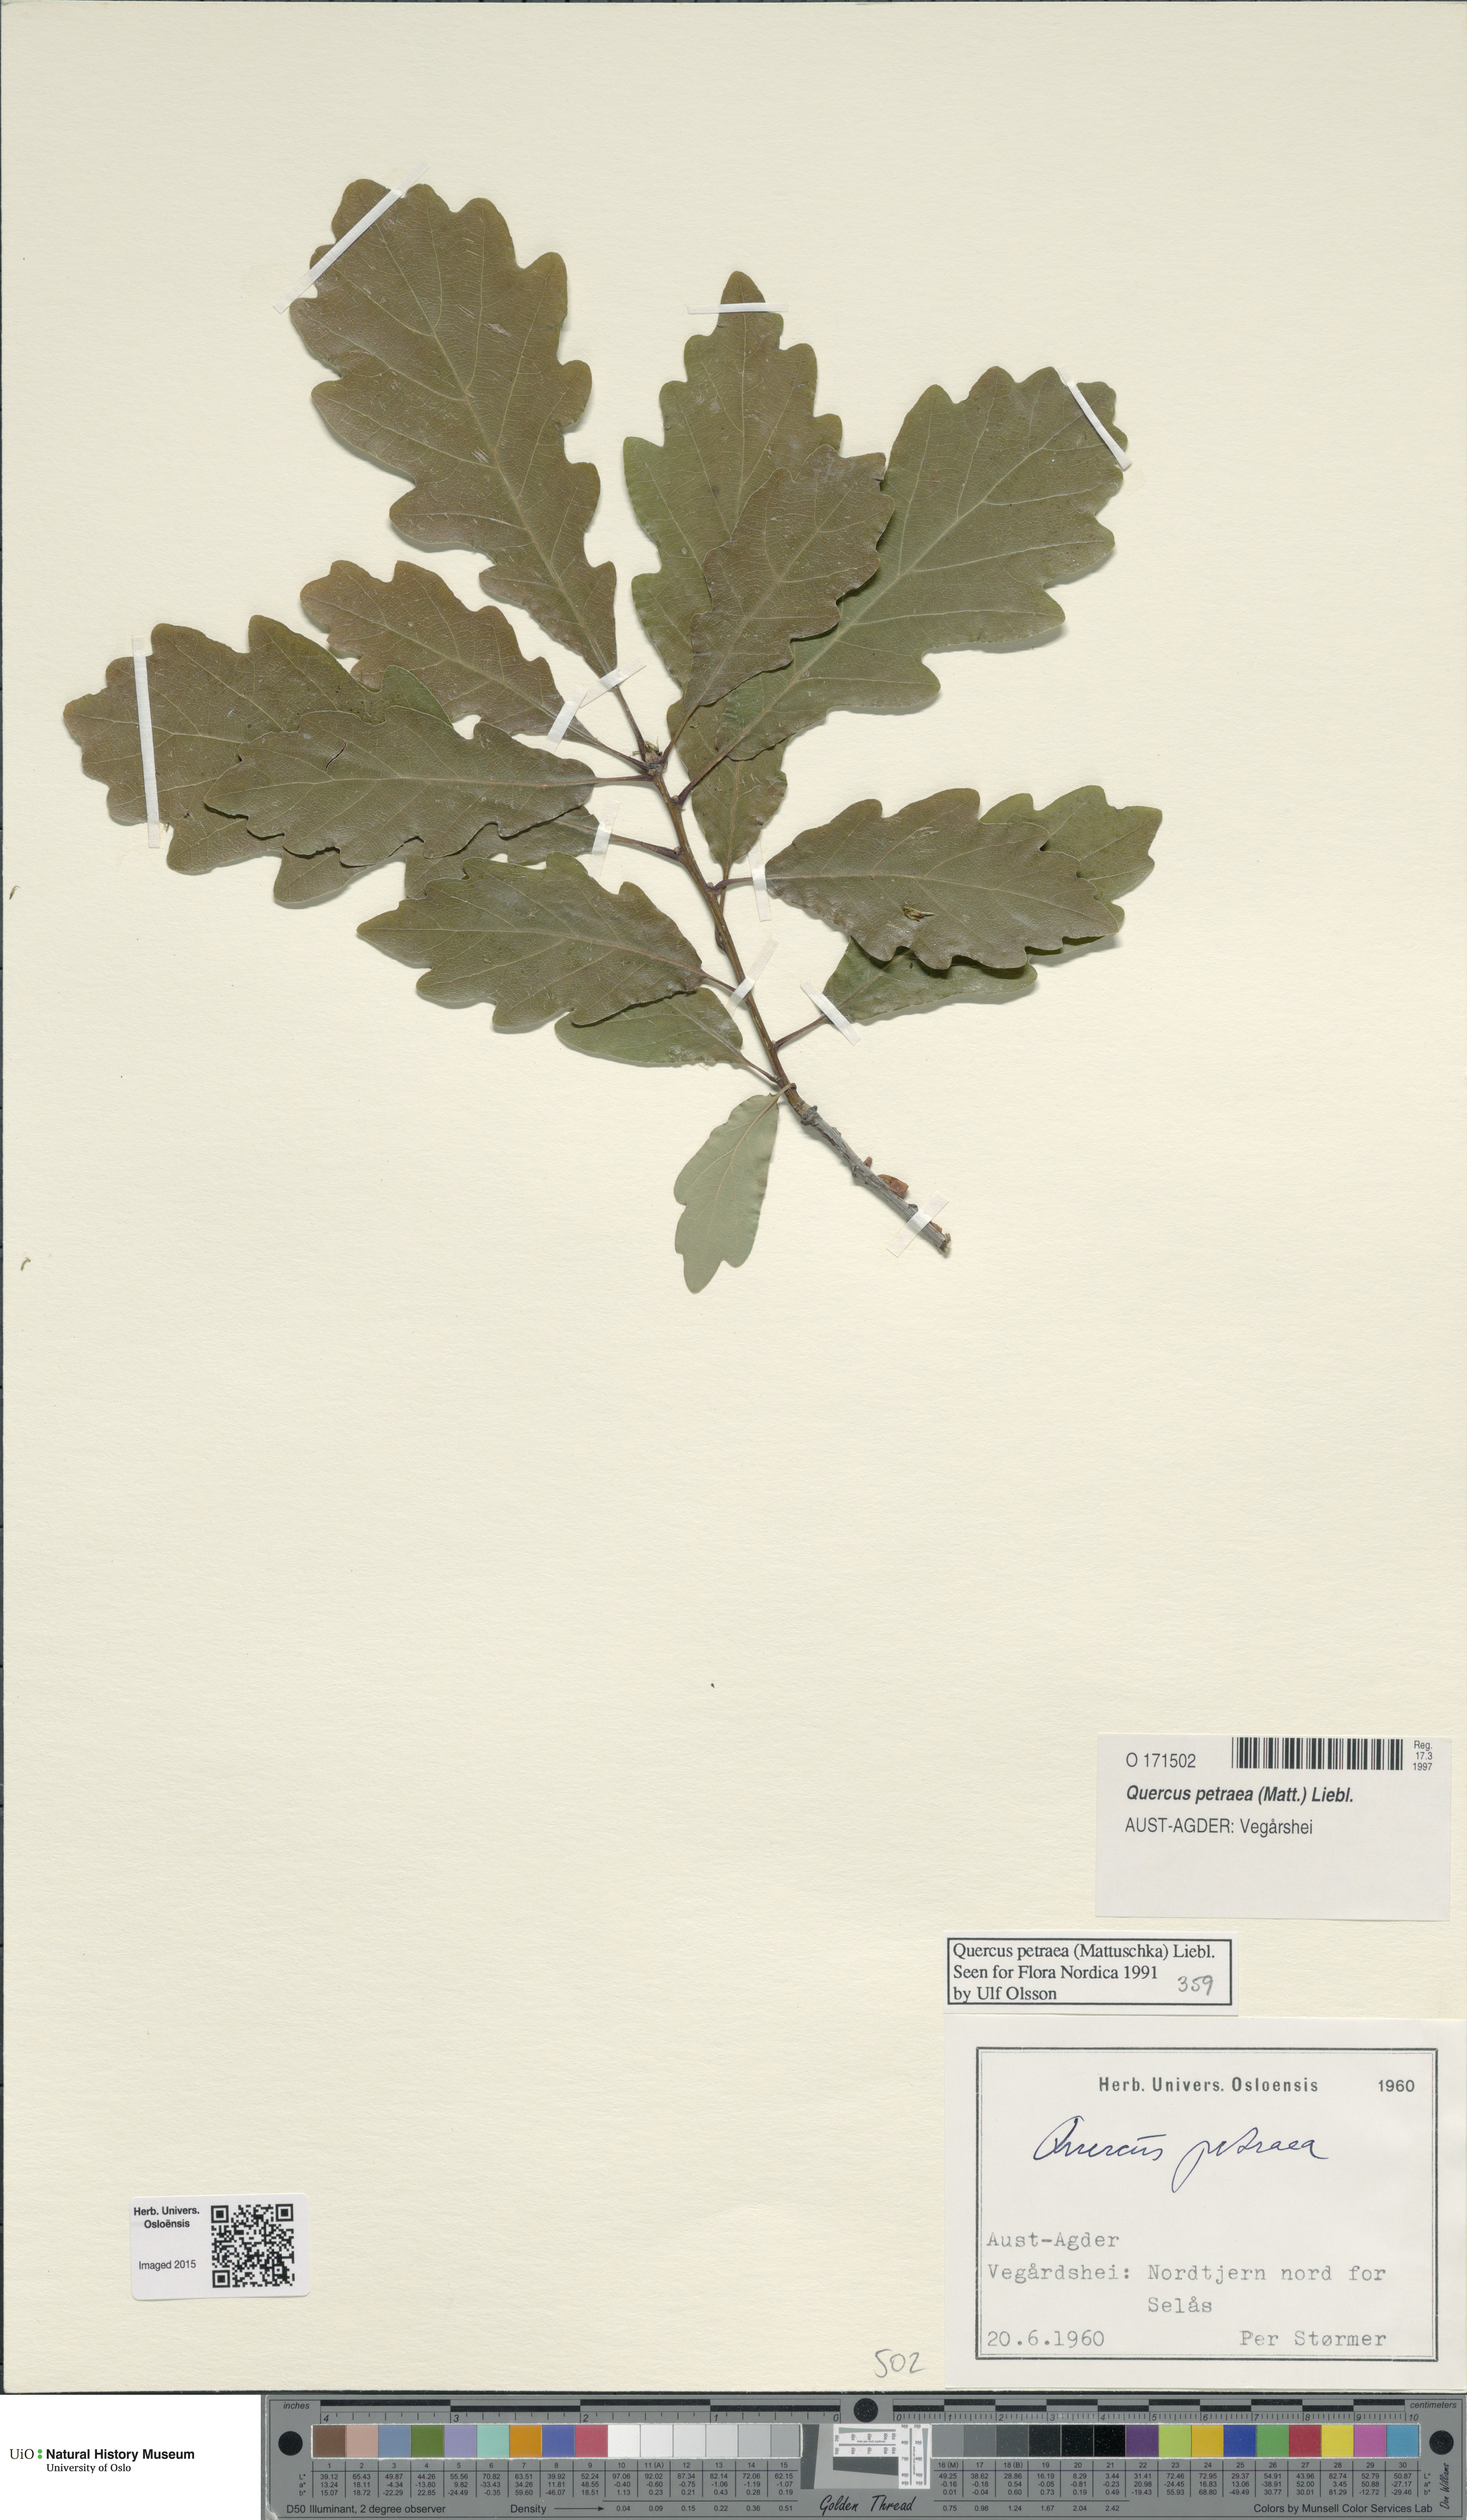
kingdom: Plantae
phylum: Tracheophyta
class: Magnoliopsida
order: Fagales
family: Fagaceae
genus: Quercus
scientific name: Quercus petraea
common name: Sessile oak
